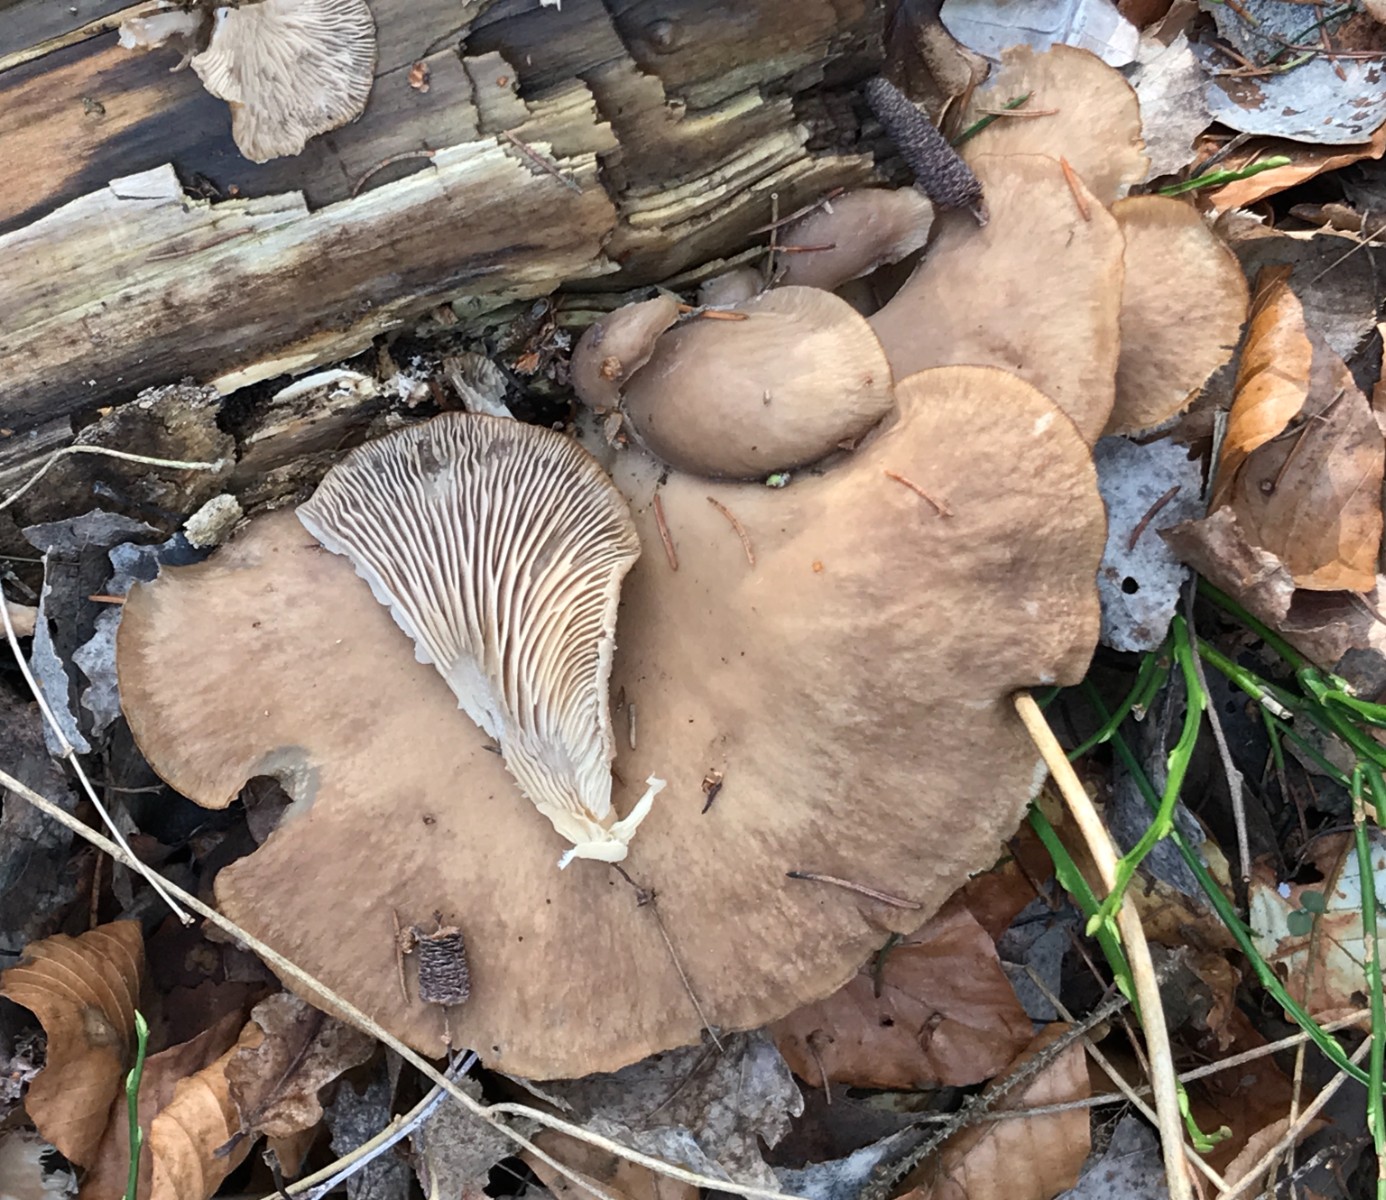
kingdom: Fungi
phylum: Basidiomycota
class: Agaricomycetes
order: Agaricales
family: Pleurotaceae
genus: Pleurotus
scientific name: Pleurotus ostreatus
